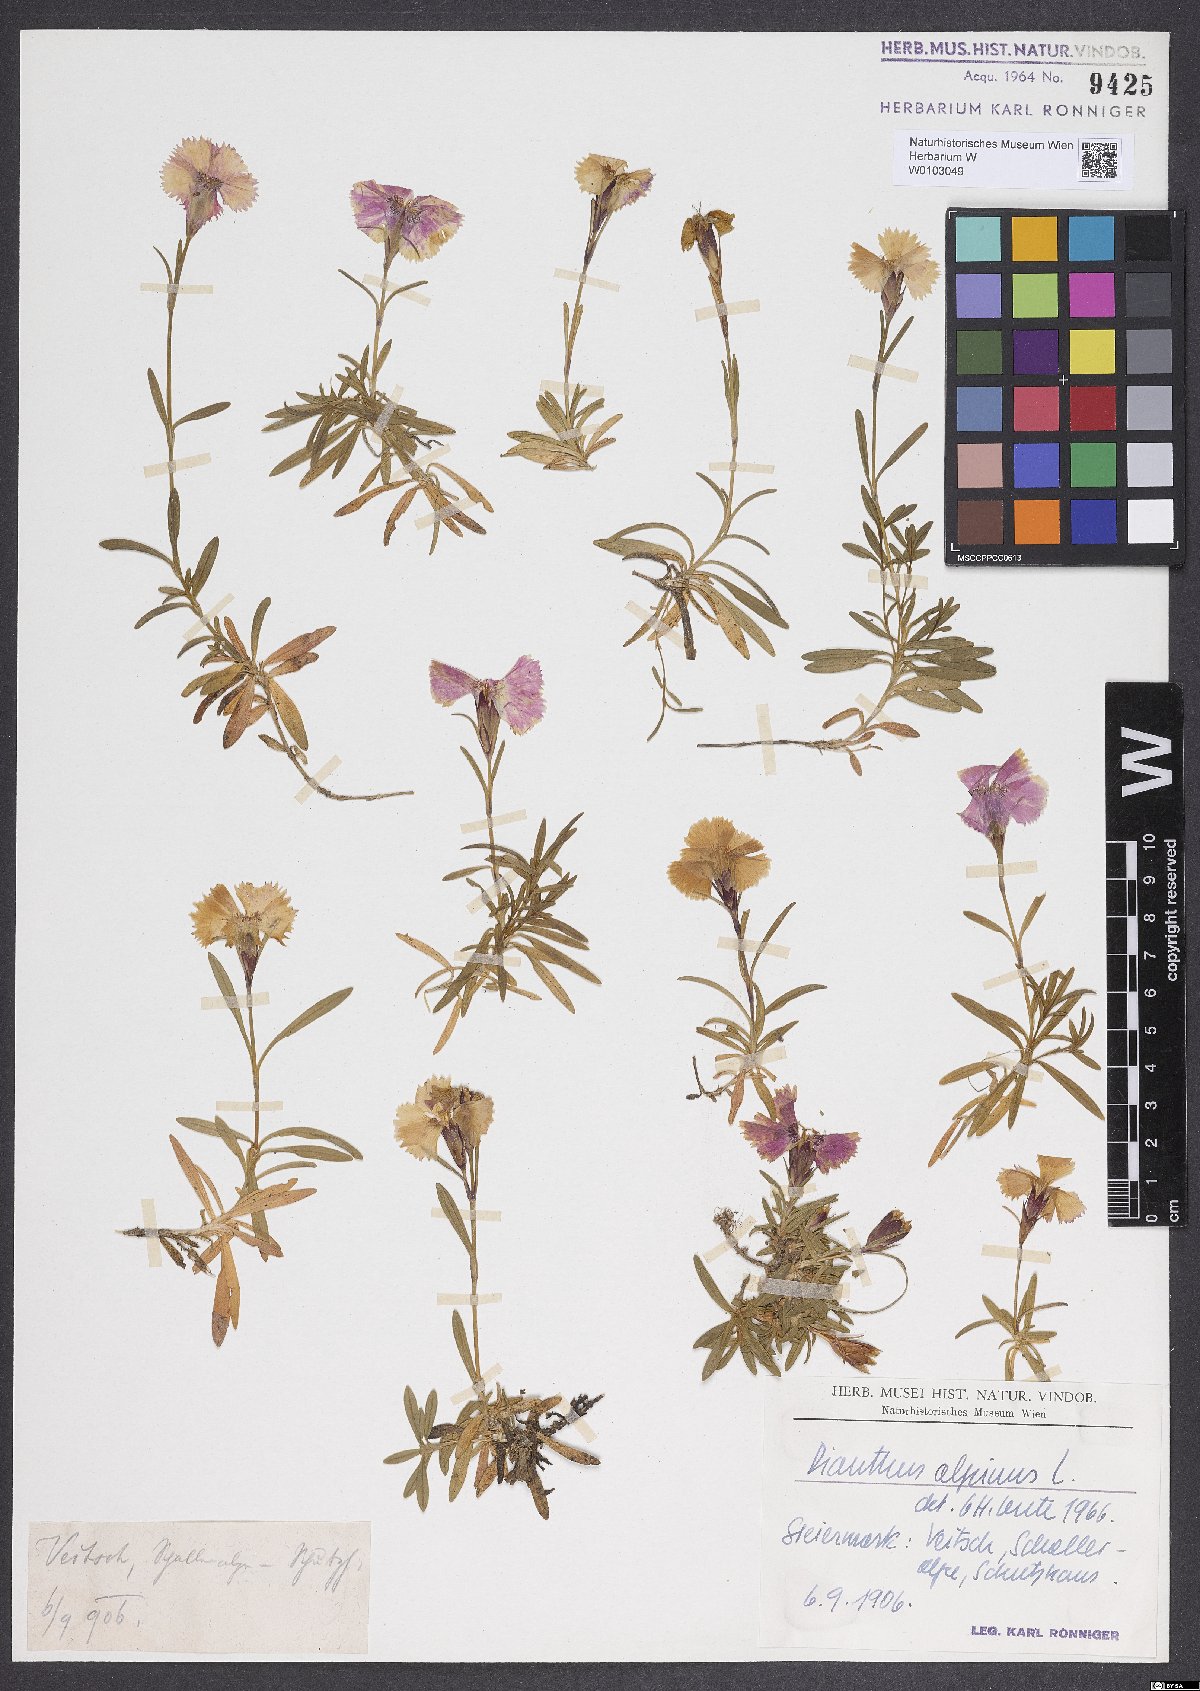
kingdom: Plantae
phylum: Tracheophyta
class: Magnoliopsida
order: Caryophyllales
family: Caryophyllaceae
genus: Dianthus
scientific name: Dianthus alpinus
